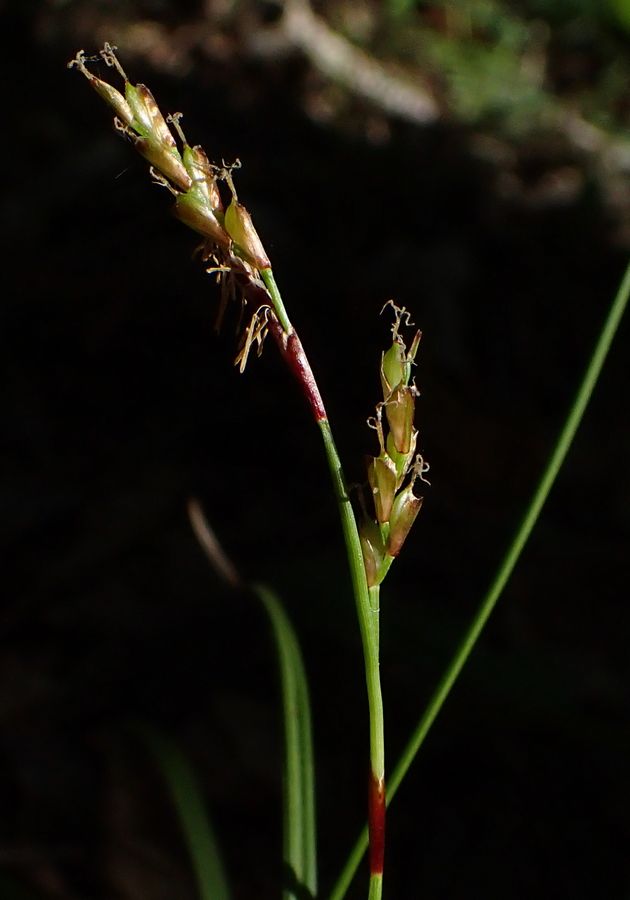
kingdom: Plantae
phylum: Tracheophyta
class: Liliopsida
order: Poales
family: Cyperaceae
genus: Carex
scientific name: Carex
